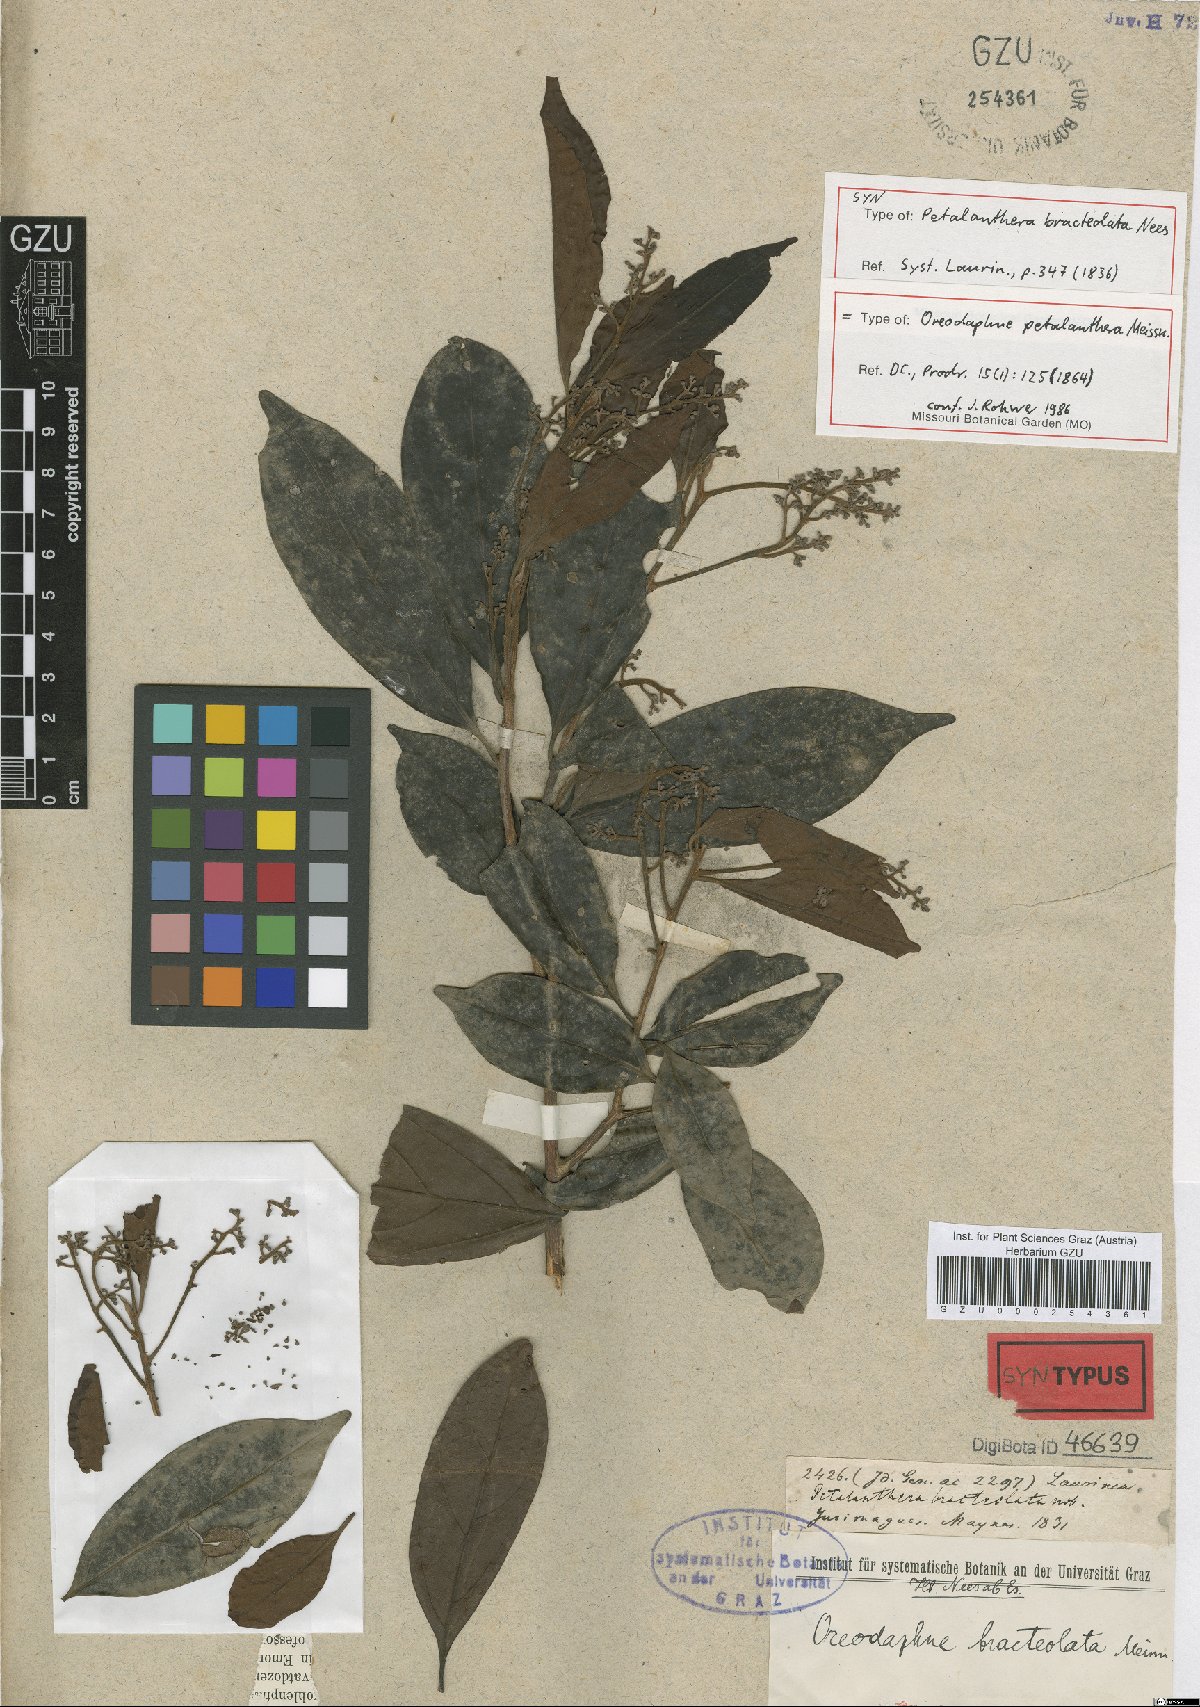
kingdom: Plantae
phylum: Tracheophyta
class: Magnoliopsida
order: Laurales
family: Lauraceae
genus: Ocotea
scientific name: Ocotea petalanthera
